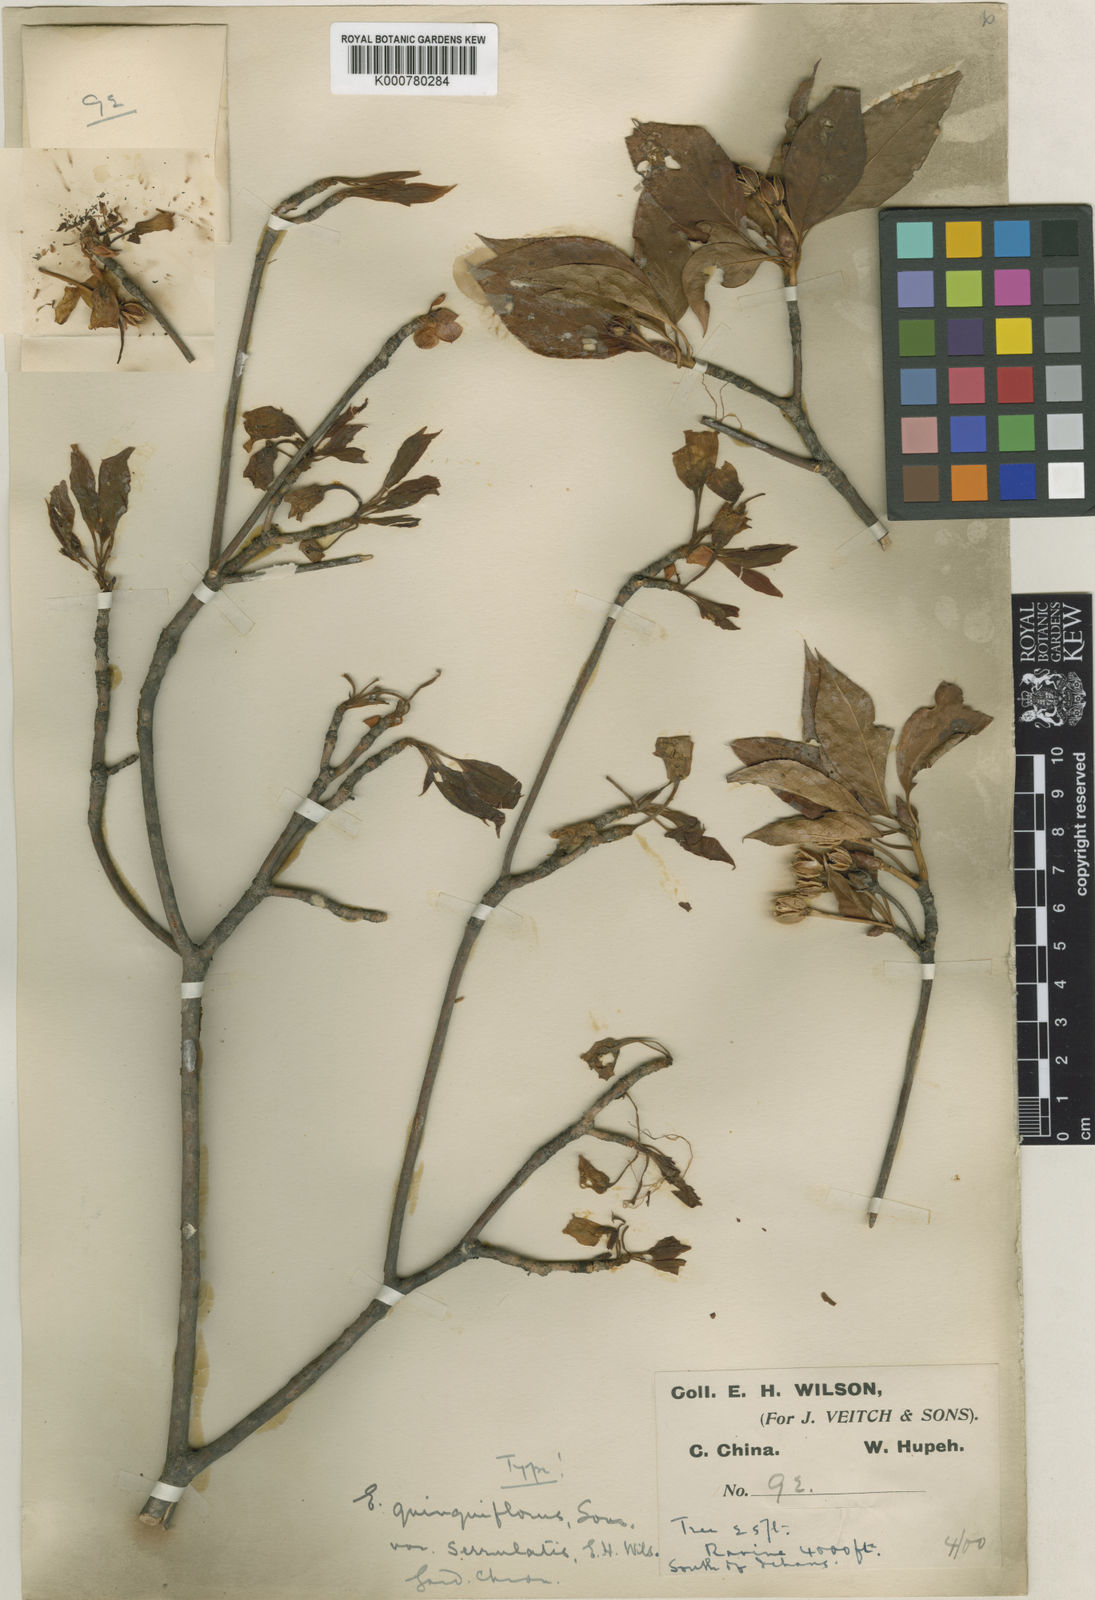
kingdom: Plantae
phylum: Tracheophyta
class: Magnoliopsida
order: Ericales
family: Ericaceae
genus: Enkianthus
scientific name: Enkianthus serrulatus
